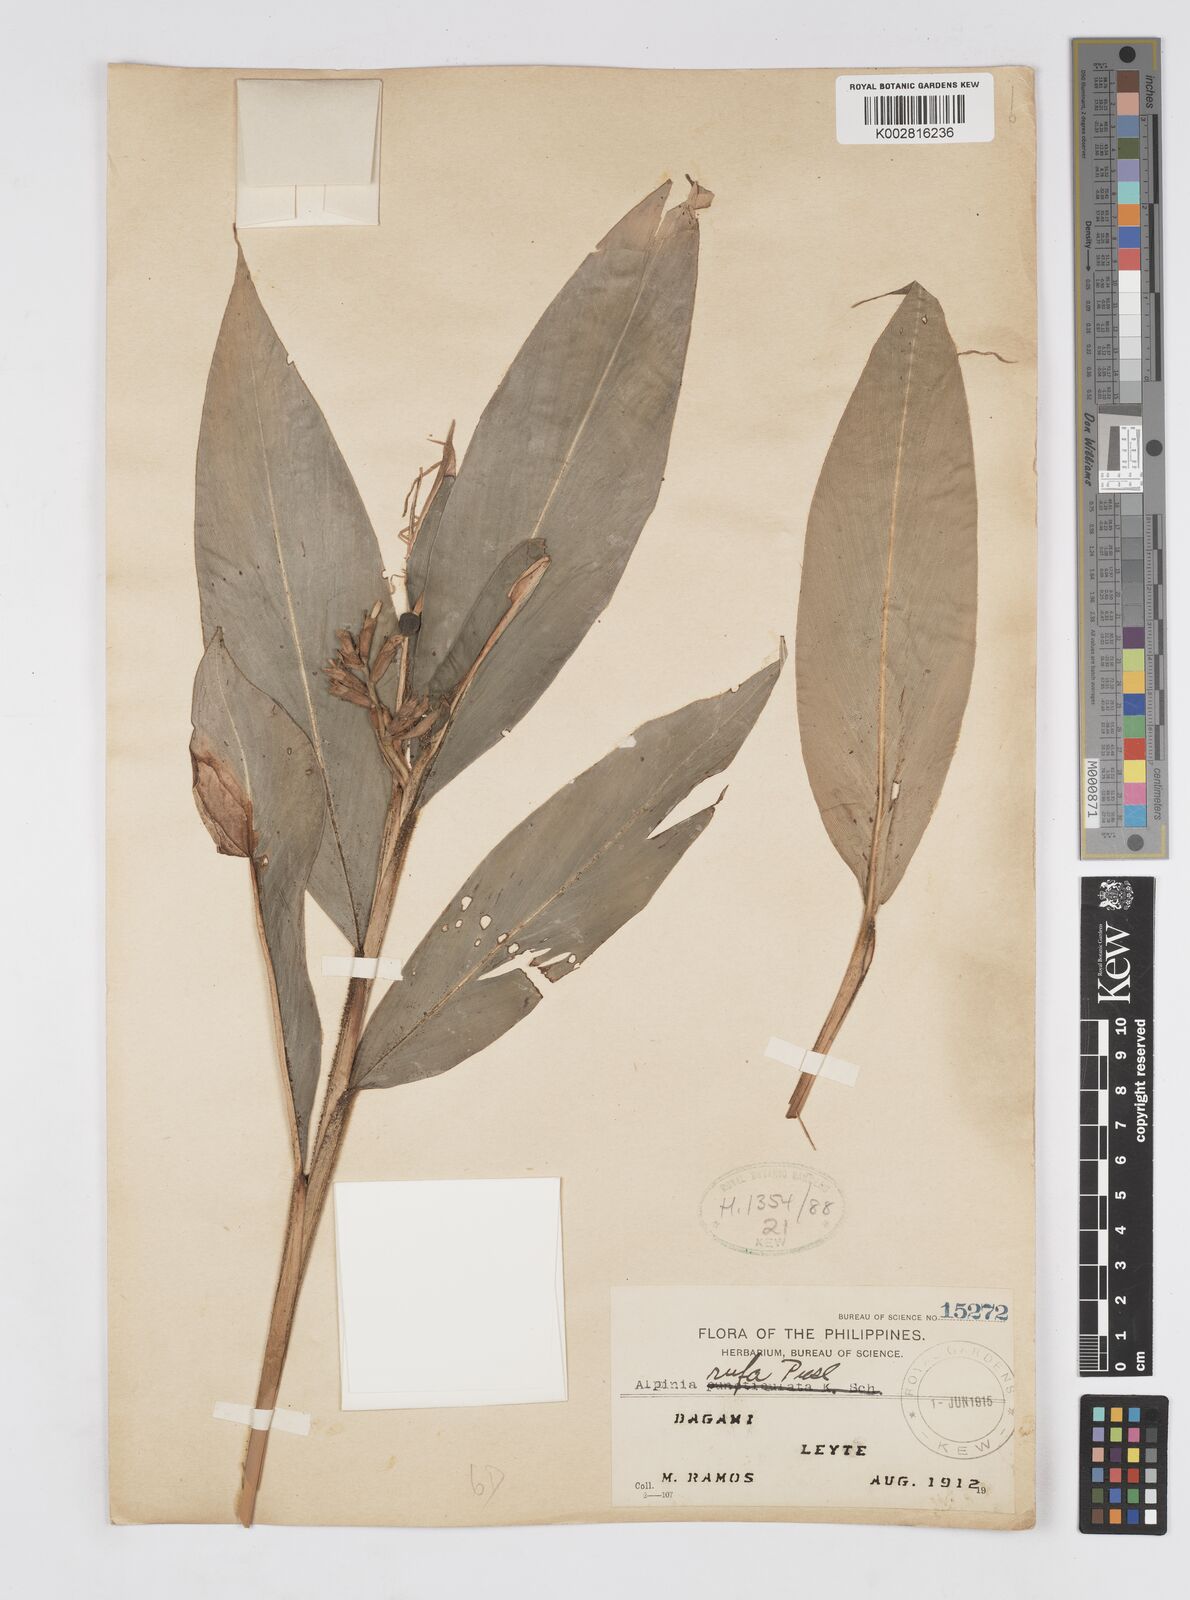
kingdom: Plantae
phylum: Tracheophyta
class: Liliopsida
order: Zingiberales
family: Zingiberaceae
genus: Alpinia
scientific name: Alpinia rufa
